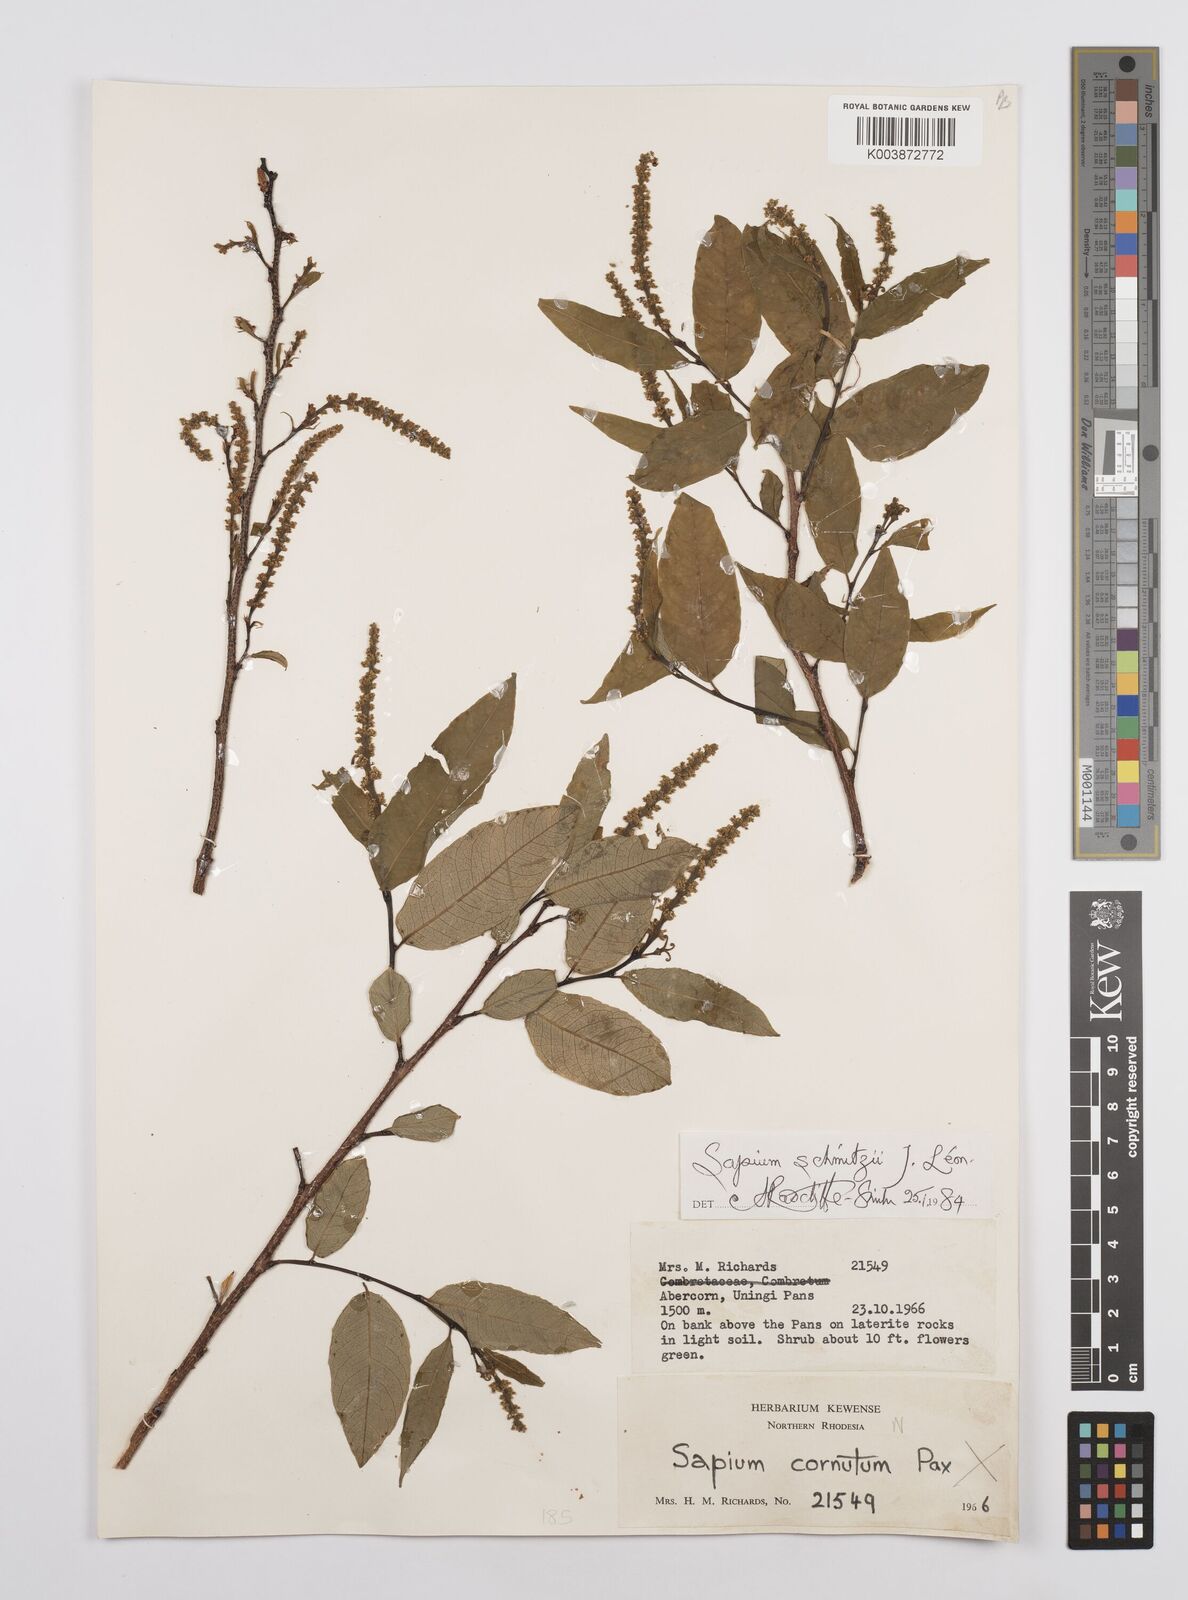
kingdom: Plantae
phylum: Tracheophyta
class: Magnoliopsida
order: Malpighiales
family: Euphorbiaceae
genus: Sclerocroton
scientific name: Sclerocroton schmitzii
